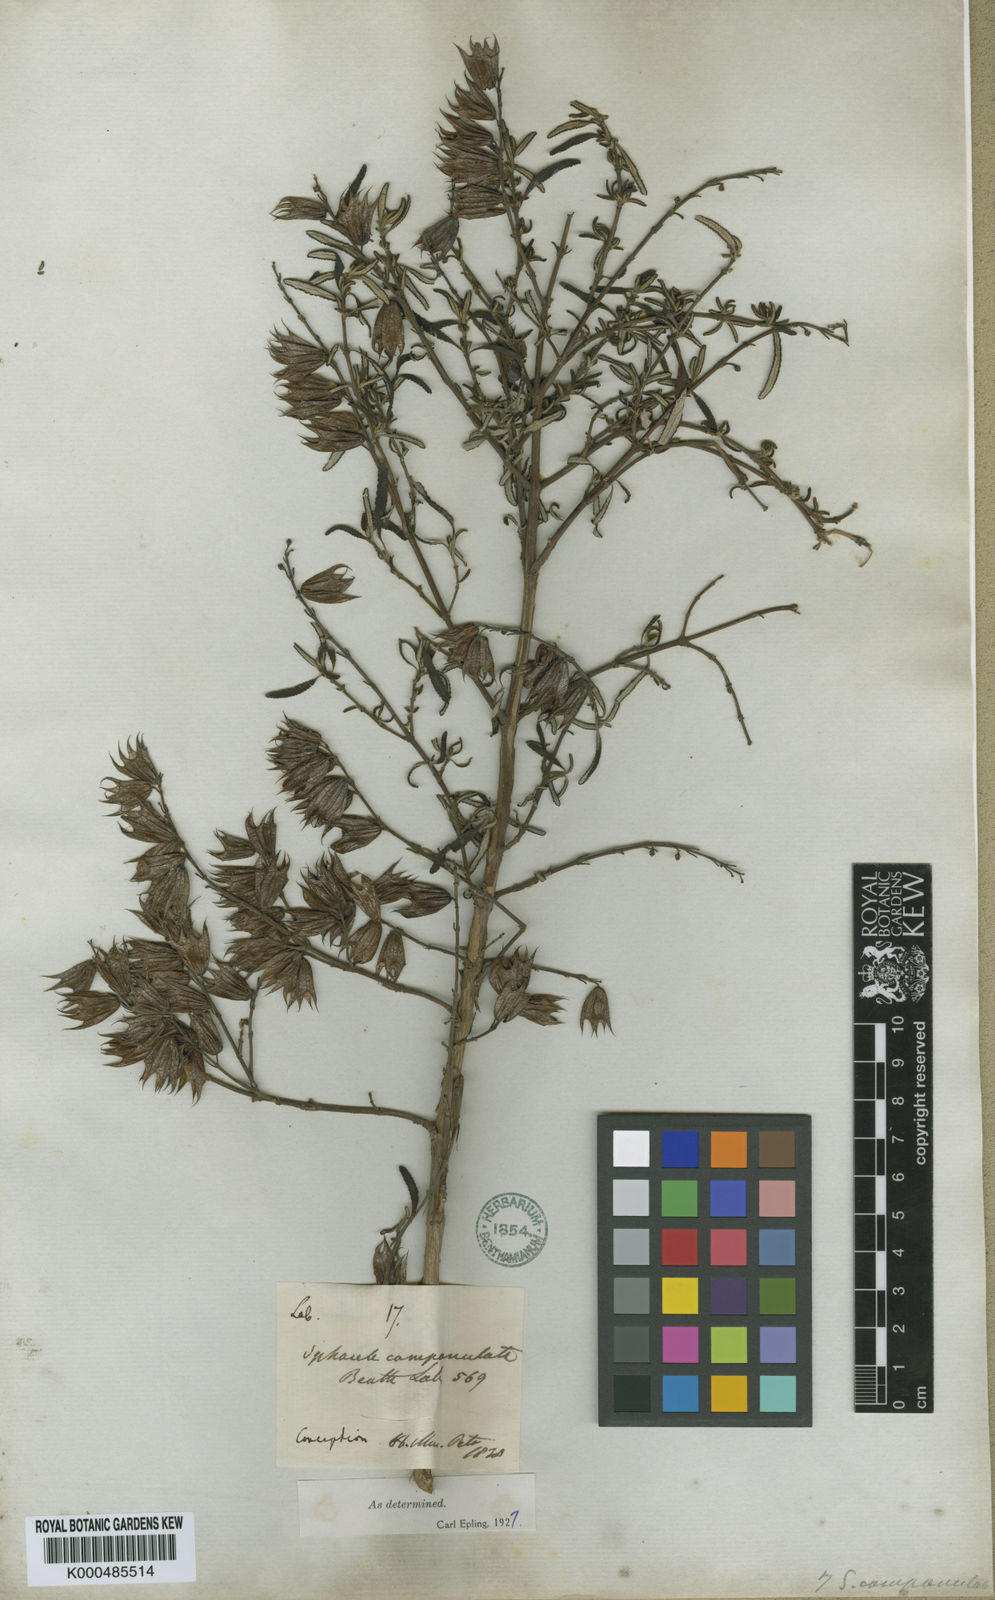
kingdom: Plantae
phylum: Tracheophyta
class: Magnoliopsida
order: Lamiales
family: Lamiaceae
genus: Lepechinia
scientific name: Lepechinia chilensis
